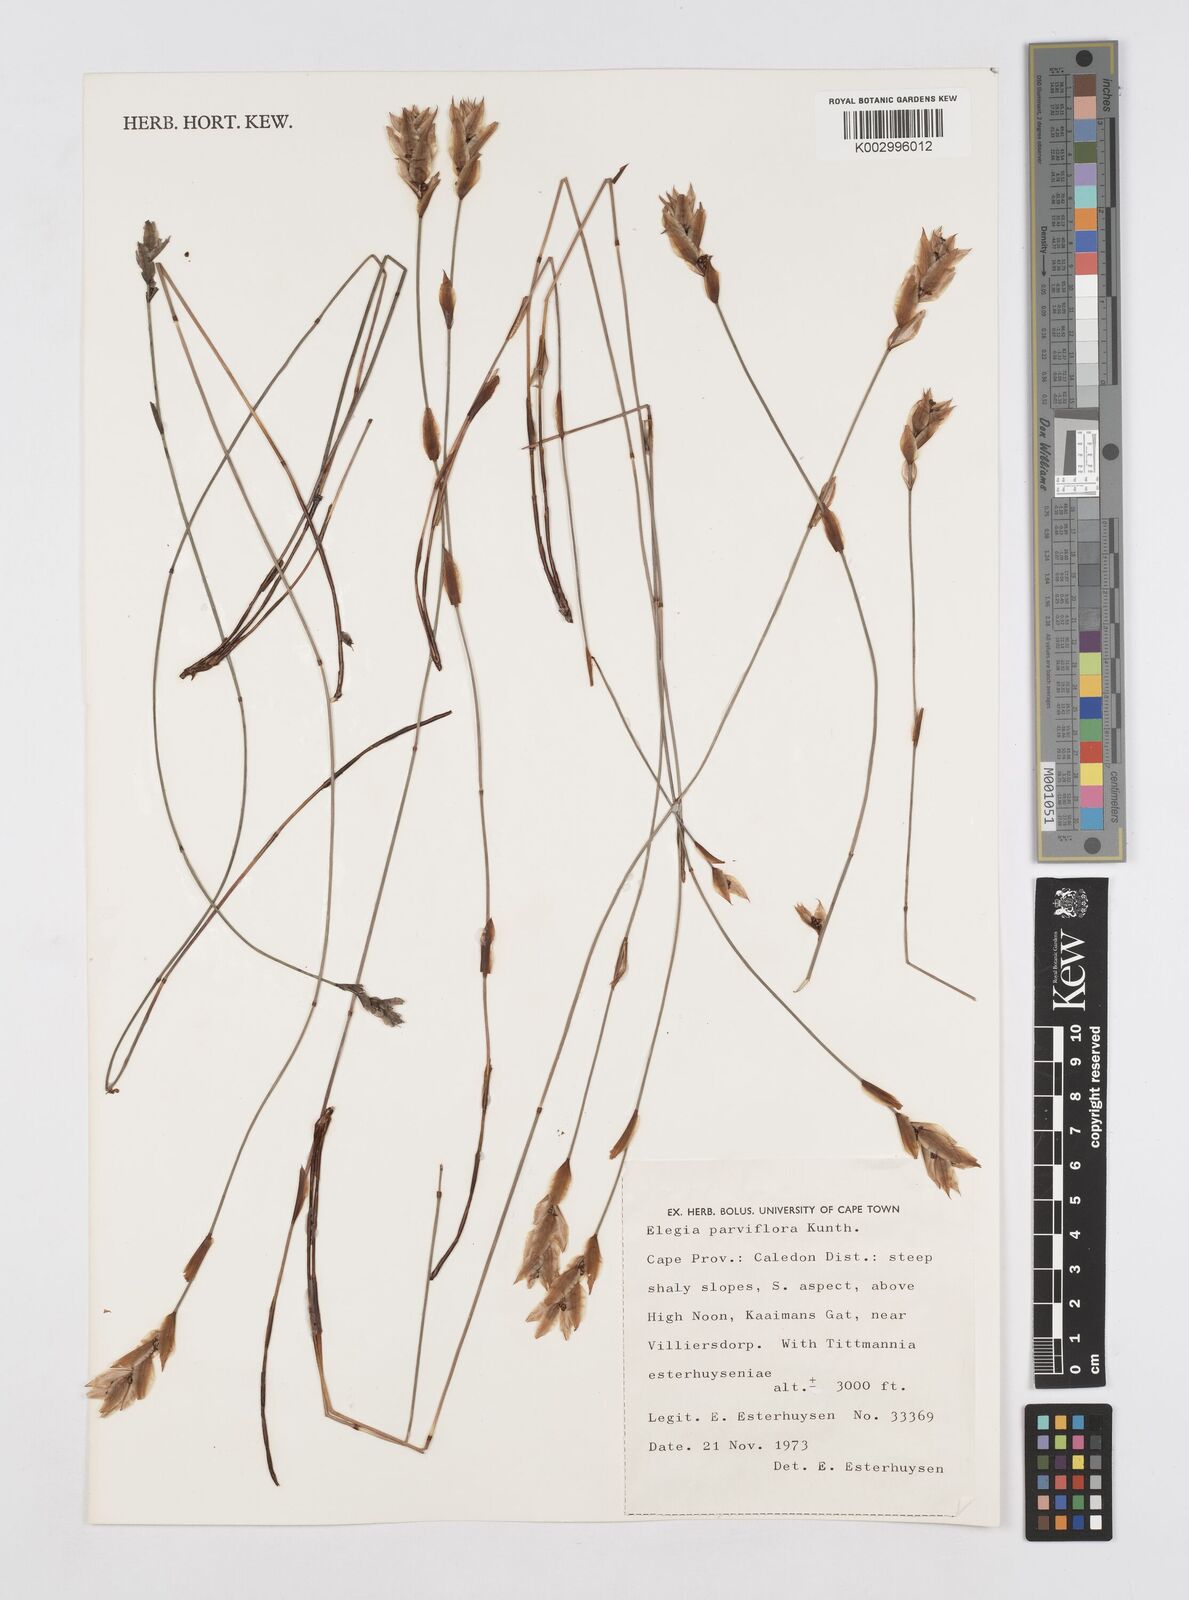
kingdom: Plantae
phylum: Tracheophyta
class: Liliopsida
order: Poales
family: Restionaceae
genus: Cannomois
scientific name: Cannomois parviflora
